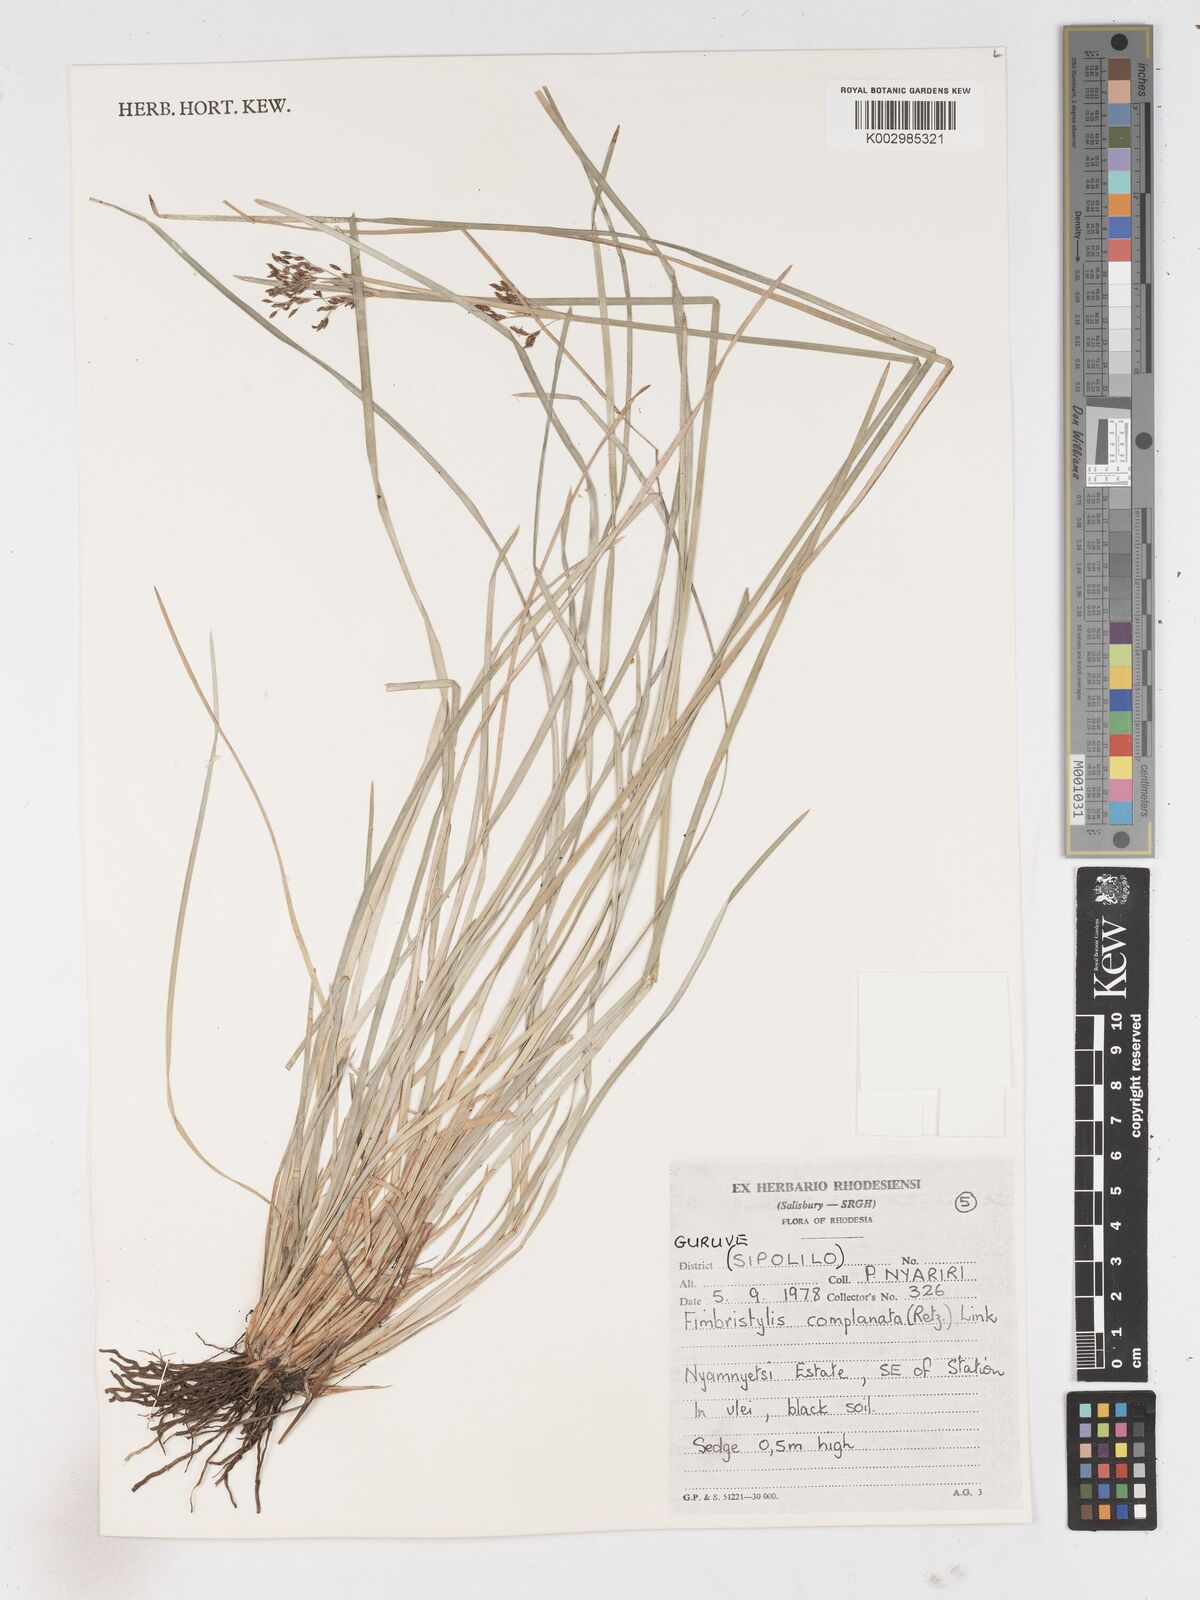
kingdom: Plantae
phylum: Tracheophyta
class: Liliopsida
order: Poales
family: Cyperaceae
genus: Fimbristylis
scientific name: Fimbristylis complanata
